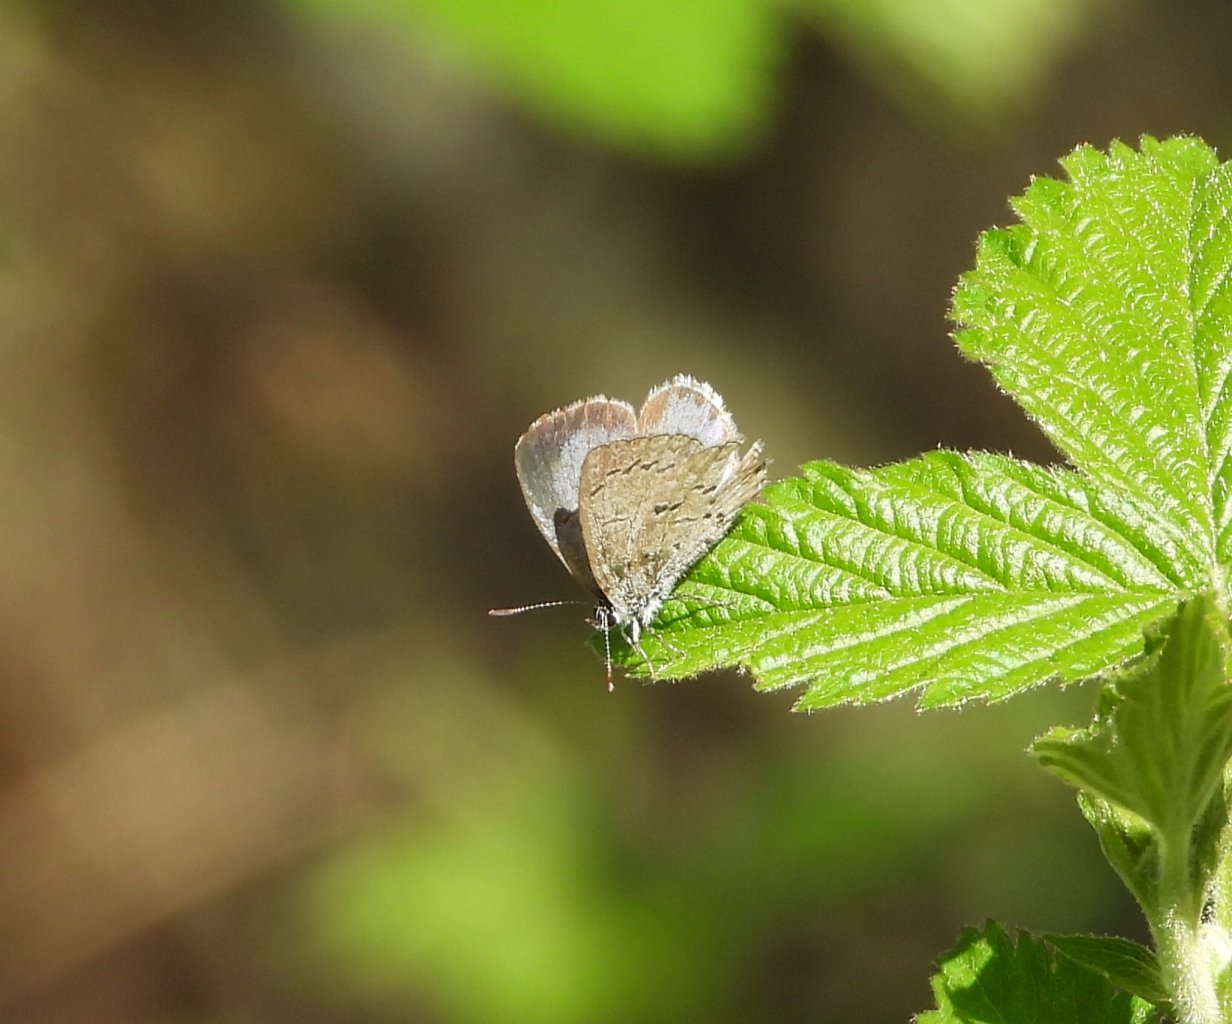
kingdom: Animalia
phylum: Arthropoda
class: Insecta
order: Lepidoptera
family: Lycaenidae
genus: Celastrina
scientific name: Celastrina ladon
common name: Spring Azure
